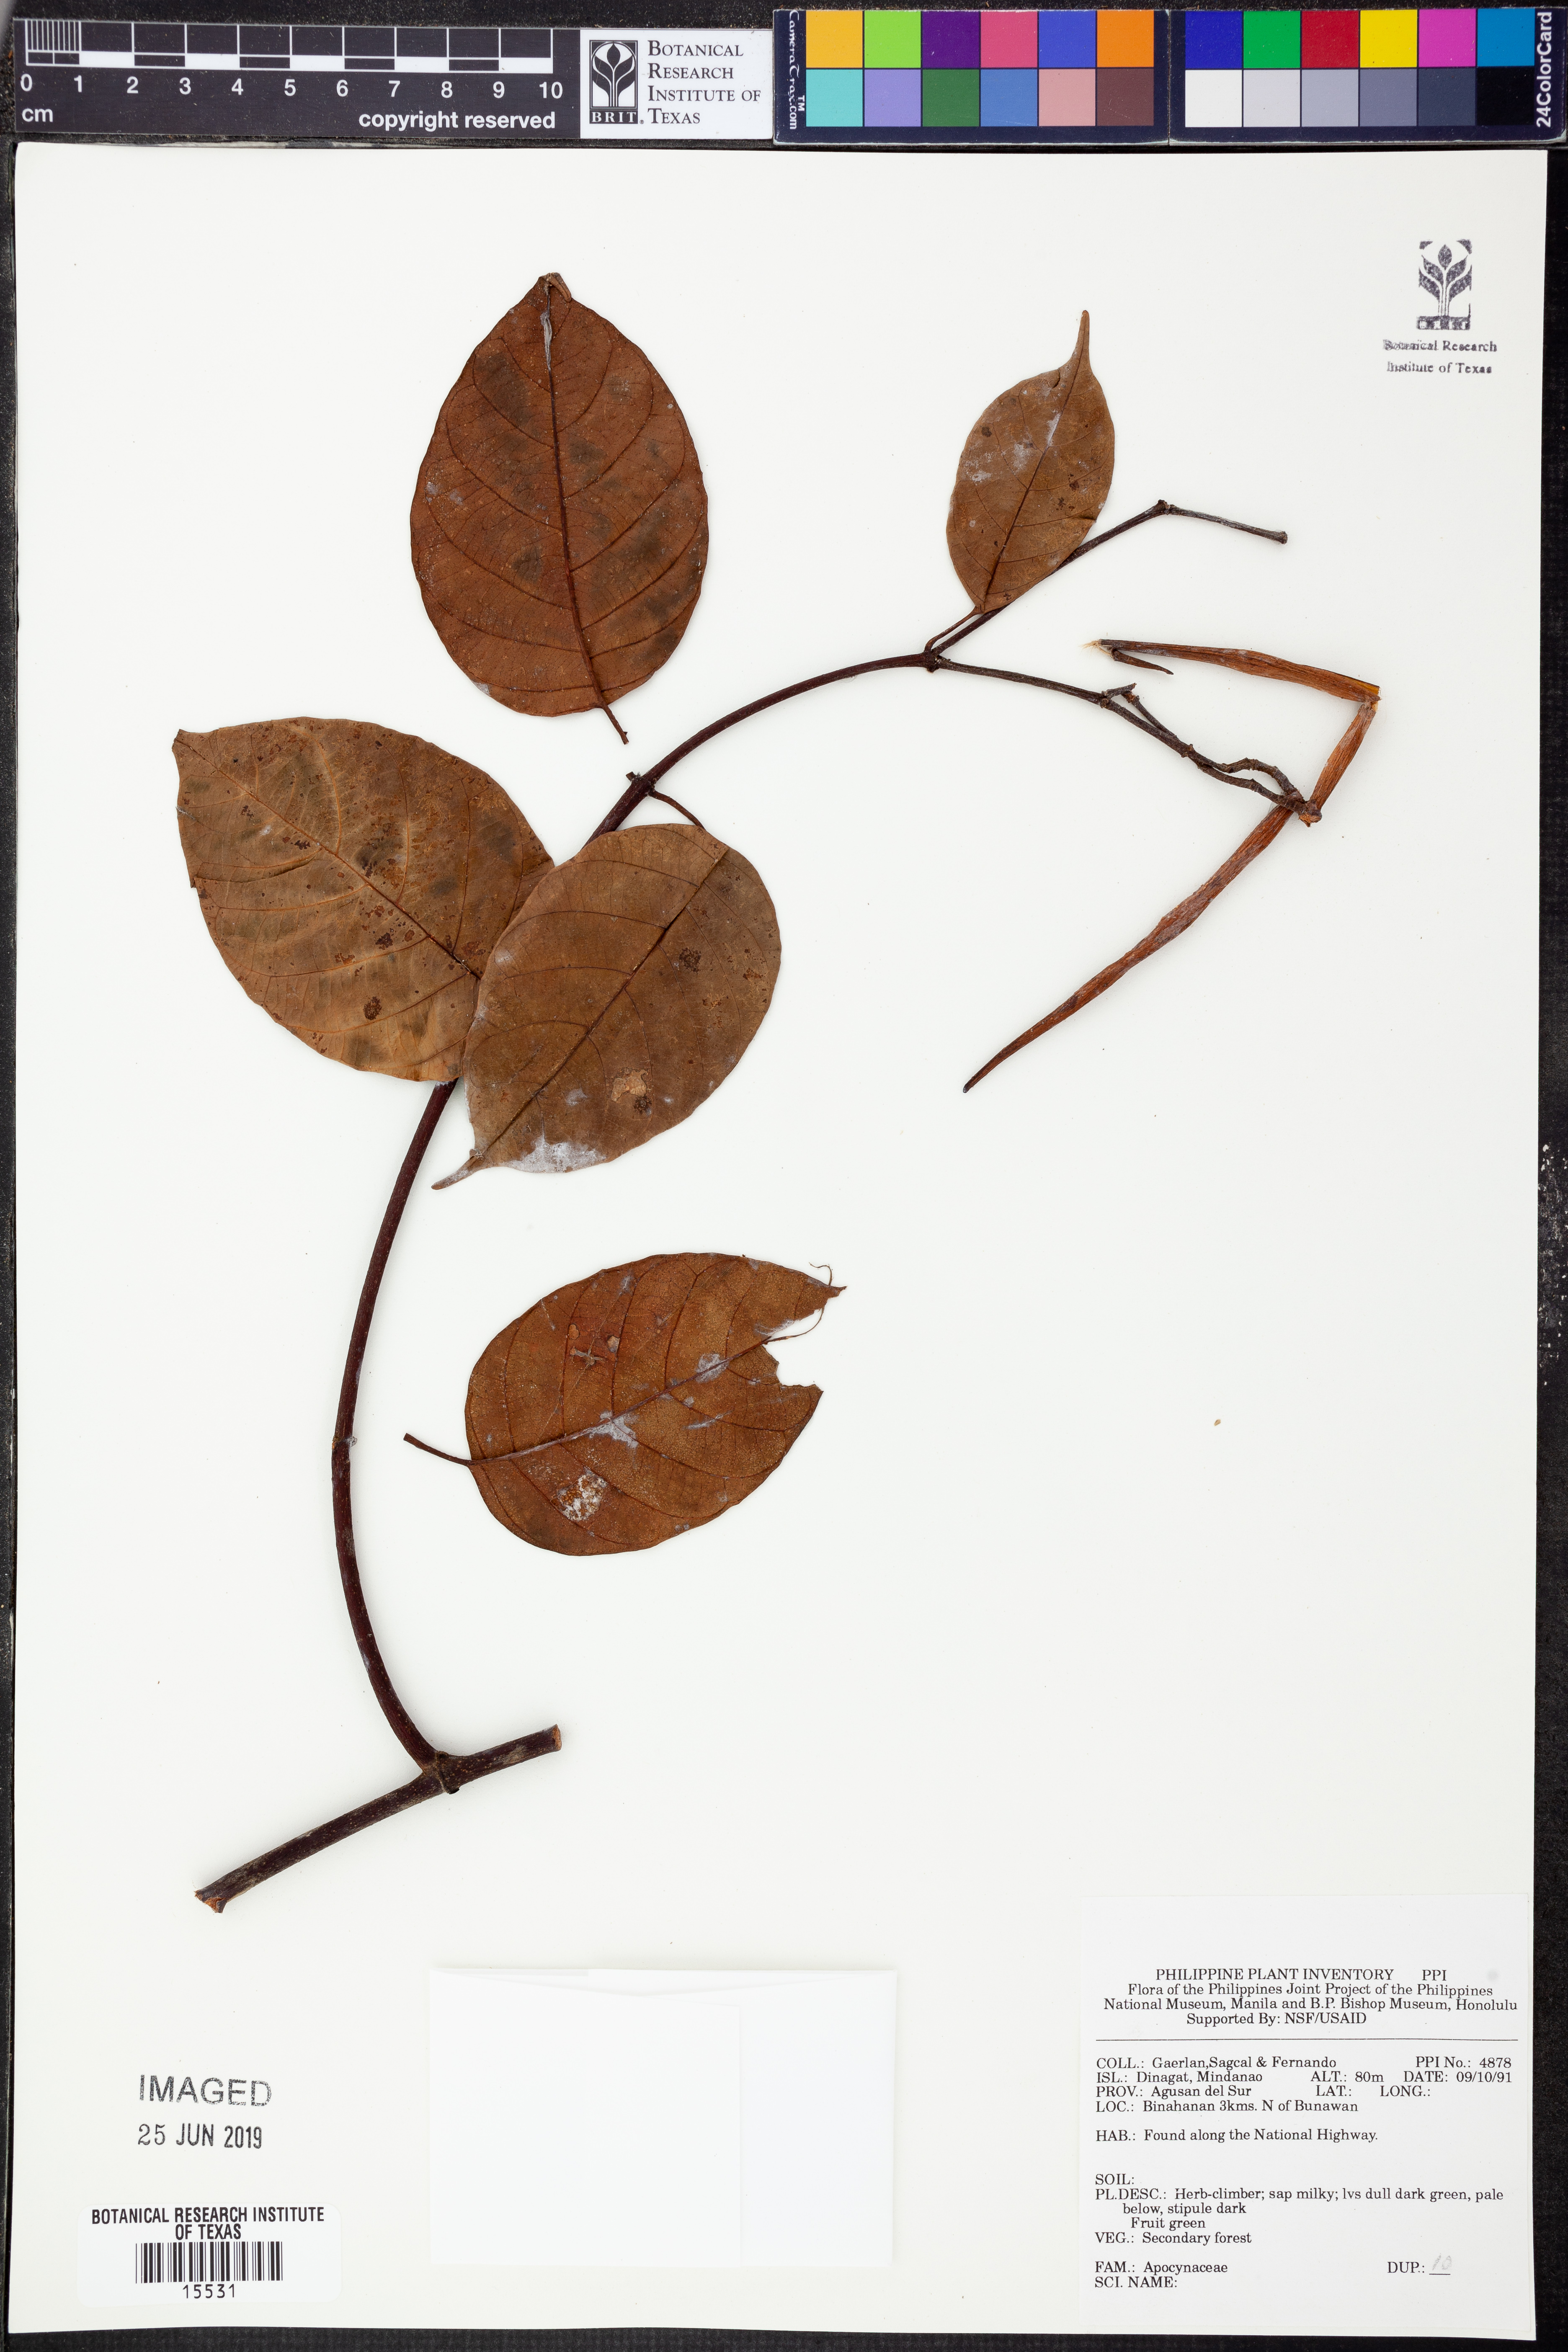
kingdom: Plantae
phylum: Tracheophyta
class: Magnoliopsida
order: Gentianales
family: Apocynaceae
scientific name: Apocynaceae
